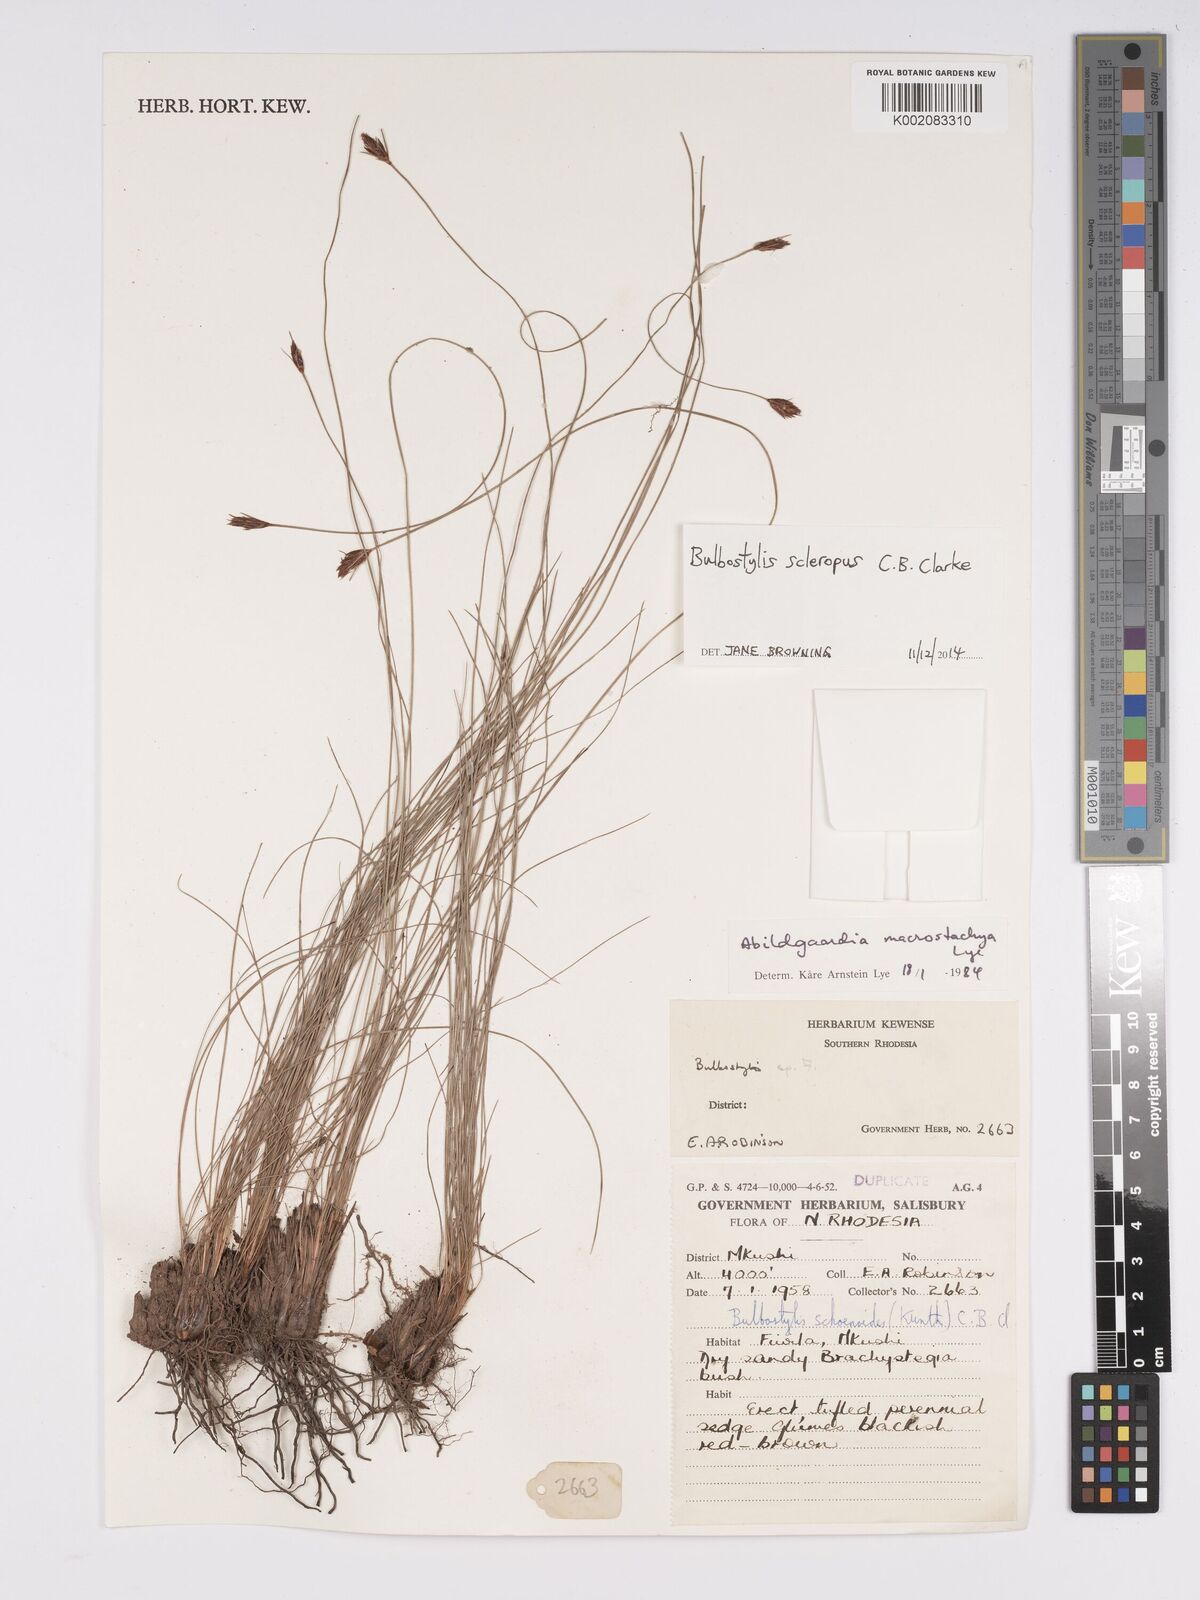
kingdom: Plantae
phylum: Tracheophyta
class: Liliopsida
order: Poales
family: Cyperaceae
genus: Bulbostylis
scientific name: Bulbostylis macrostachya
